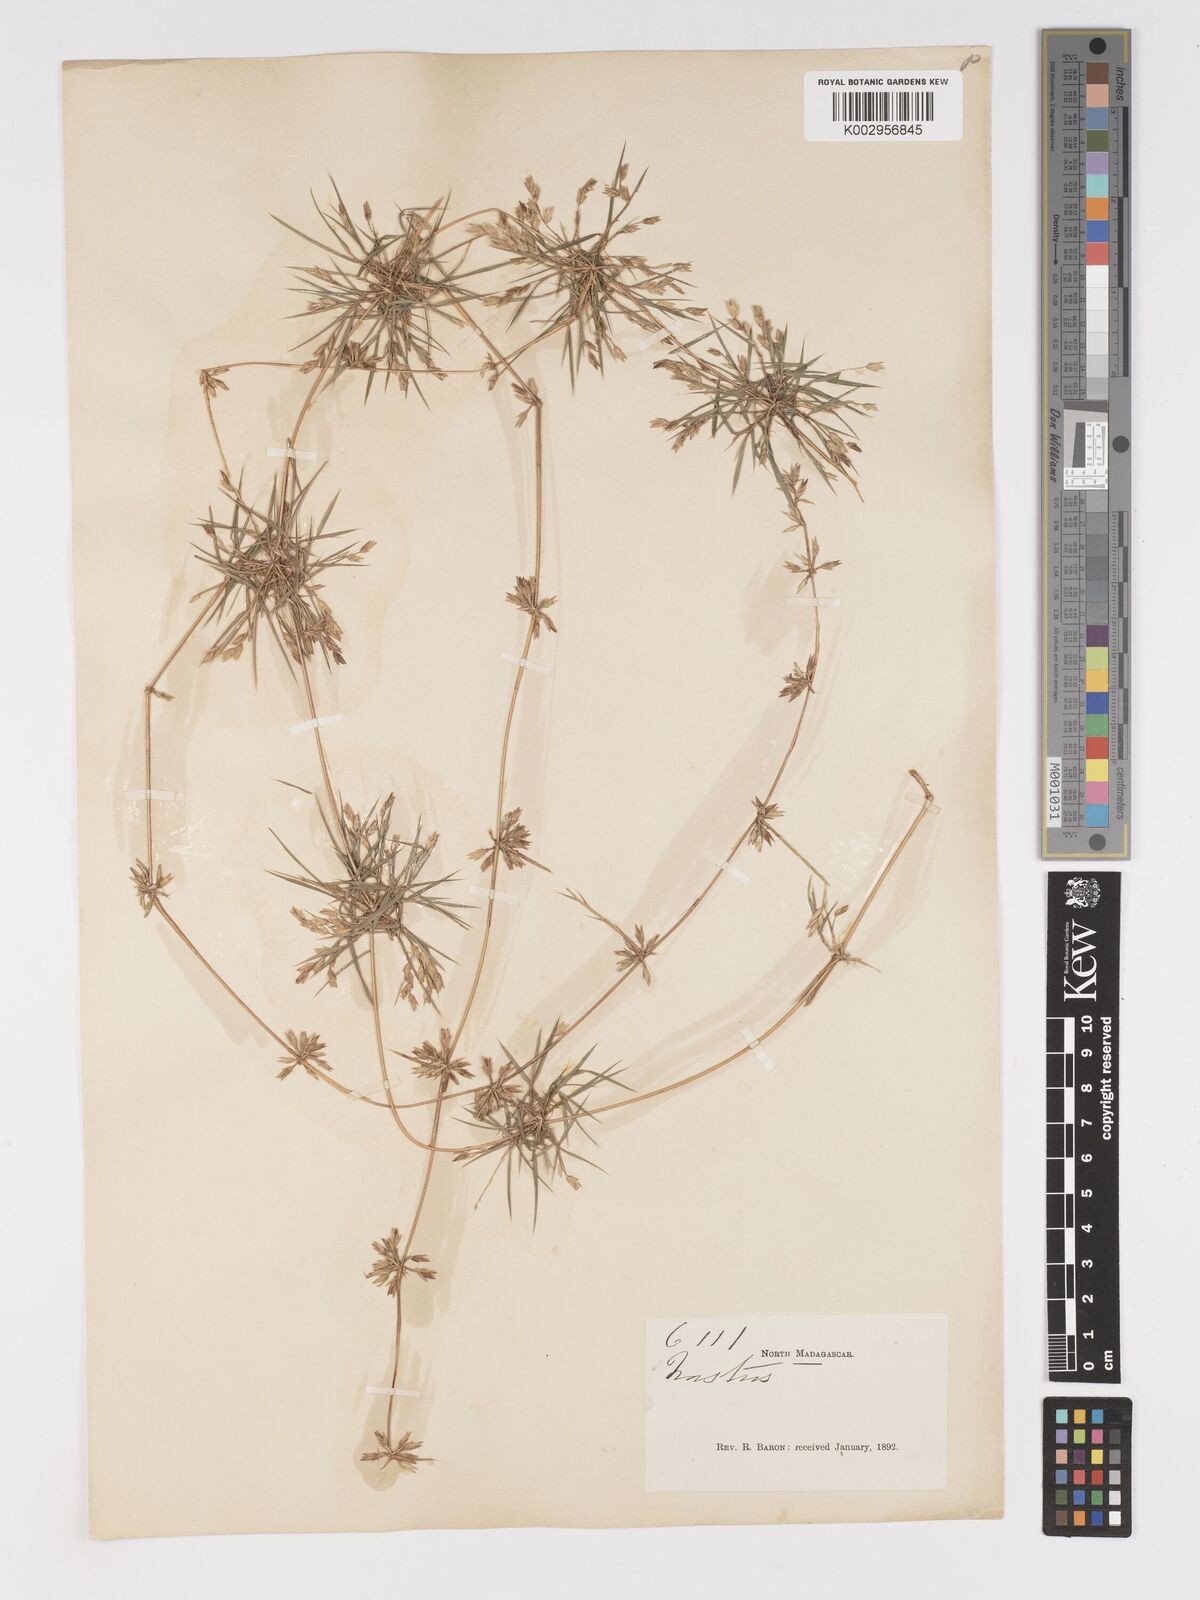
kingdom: Plantae
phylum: Tracheophyta
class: Liliopsida
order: Poales
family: Poaceae
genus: Nastus
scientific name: Nastus aristatus
